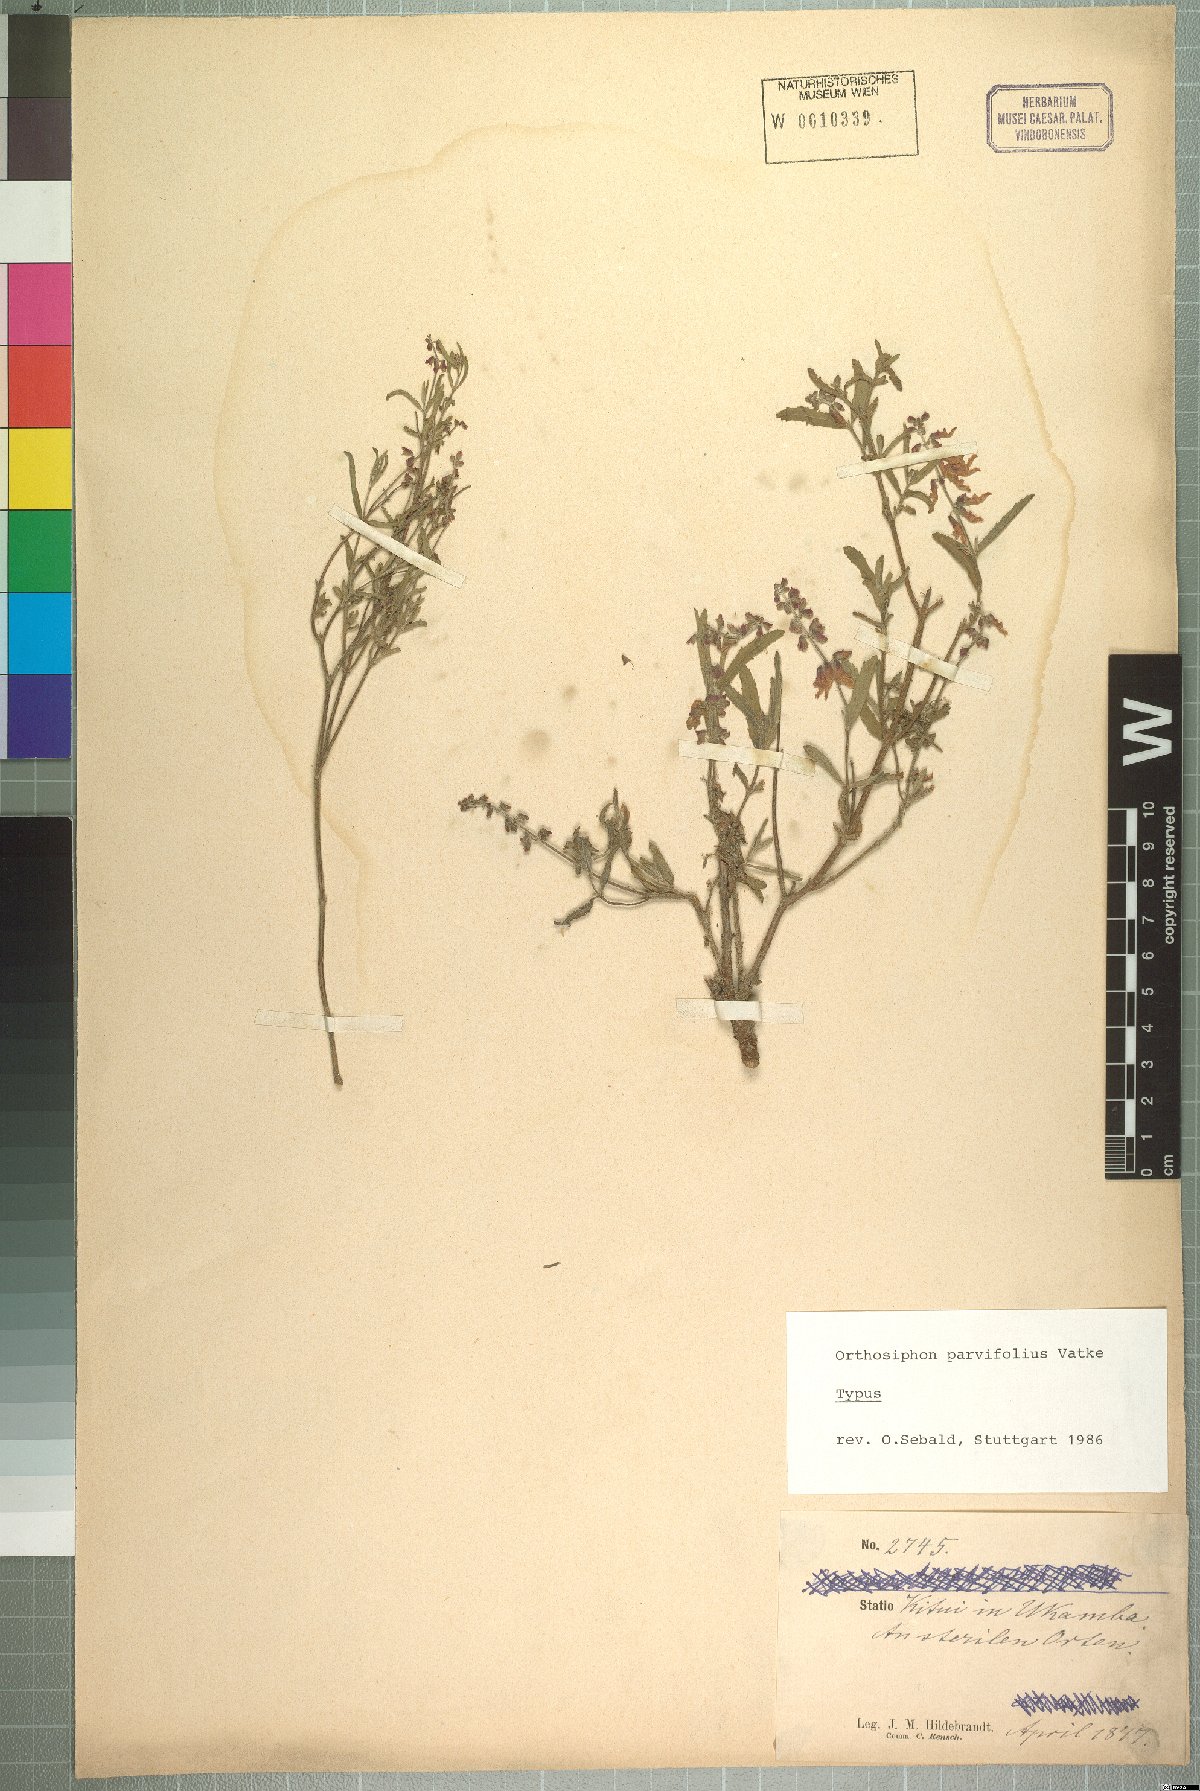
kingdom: Plantae
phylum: Tracheophyta
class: Magnoliopsida
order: Lamiales
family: Lamiaceae
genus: Orthosiphon
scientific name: Orthosiphon parvifolius
